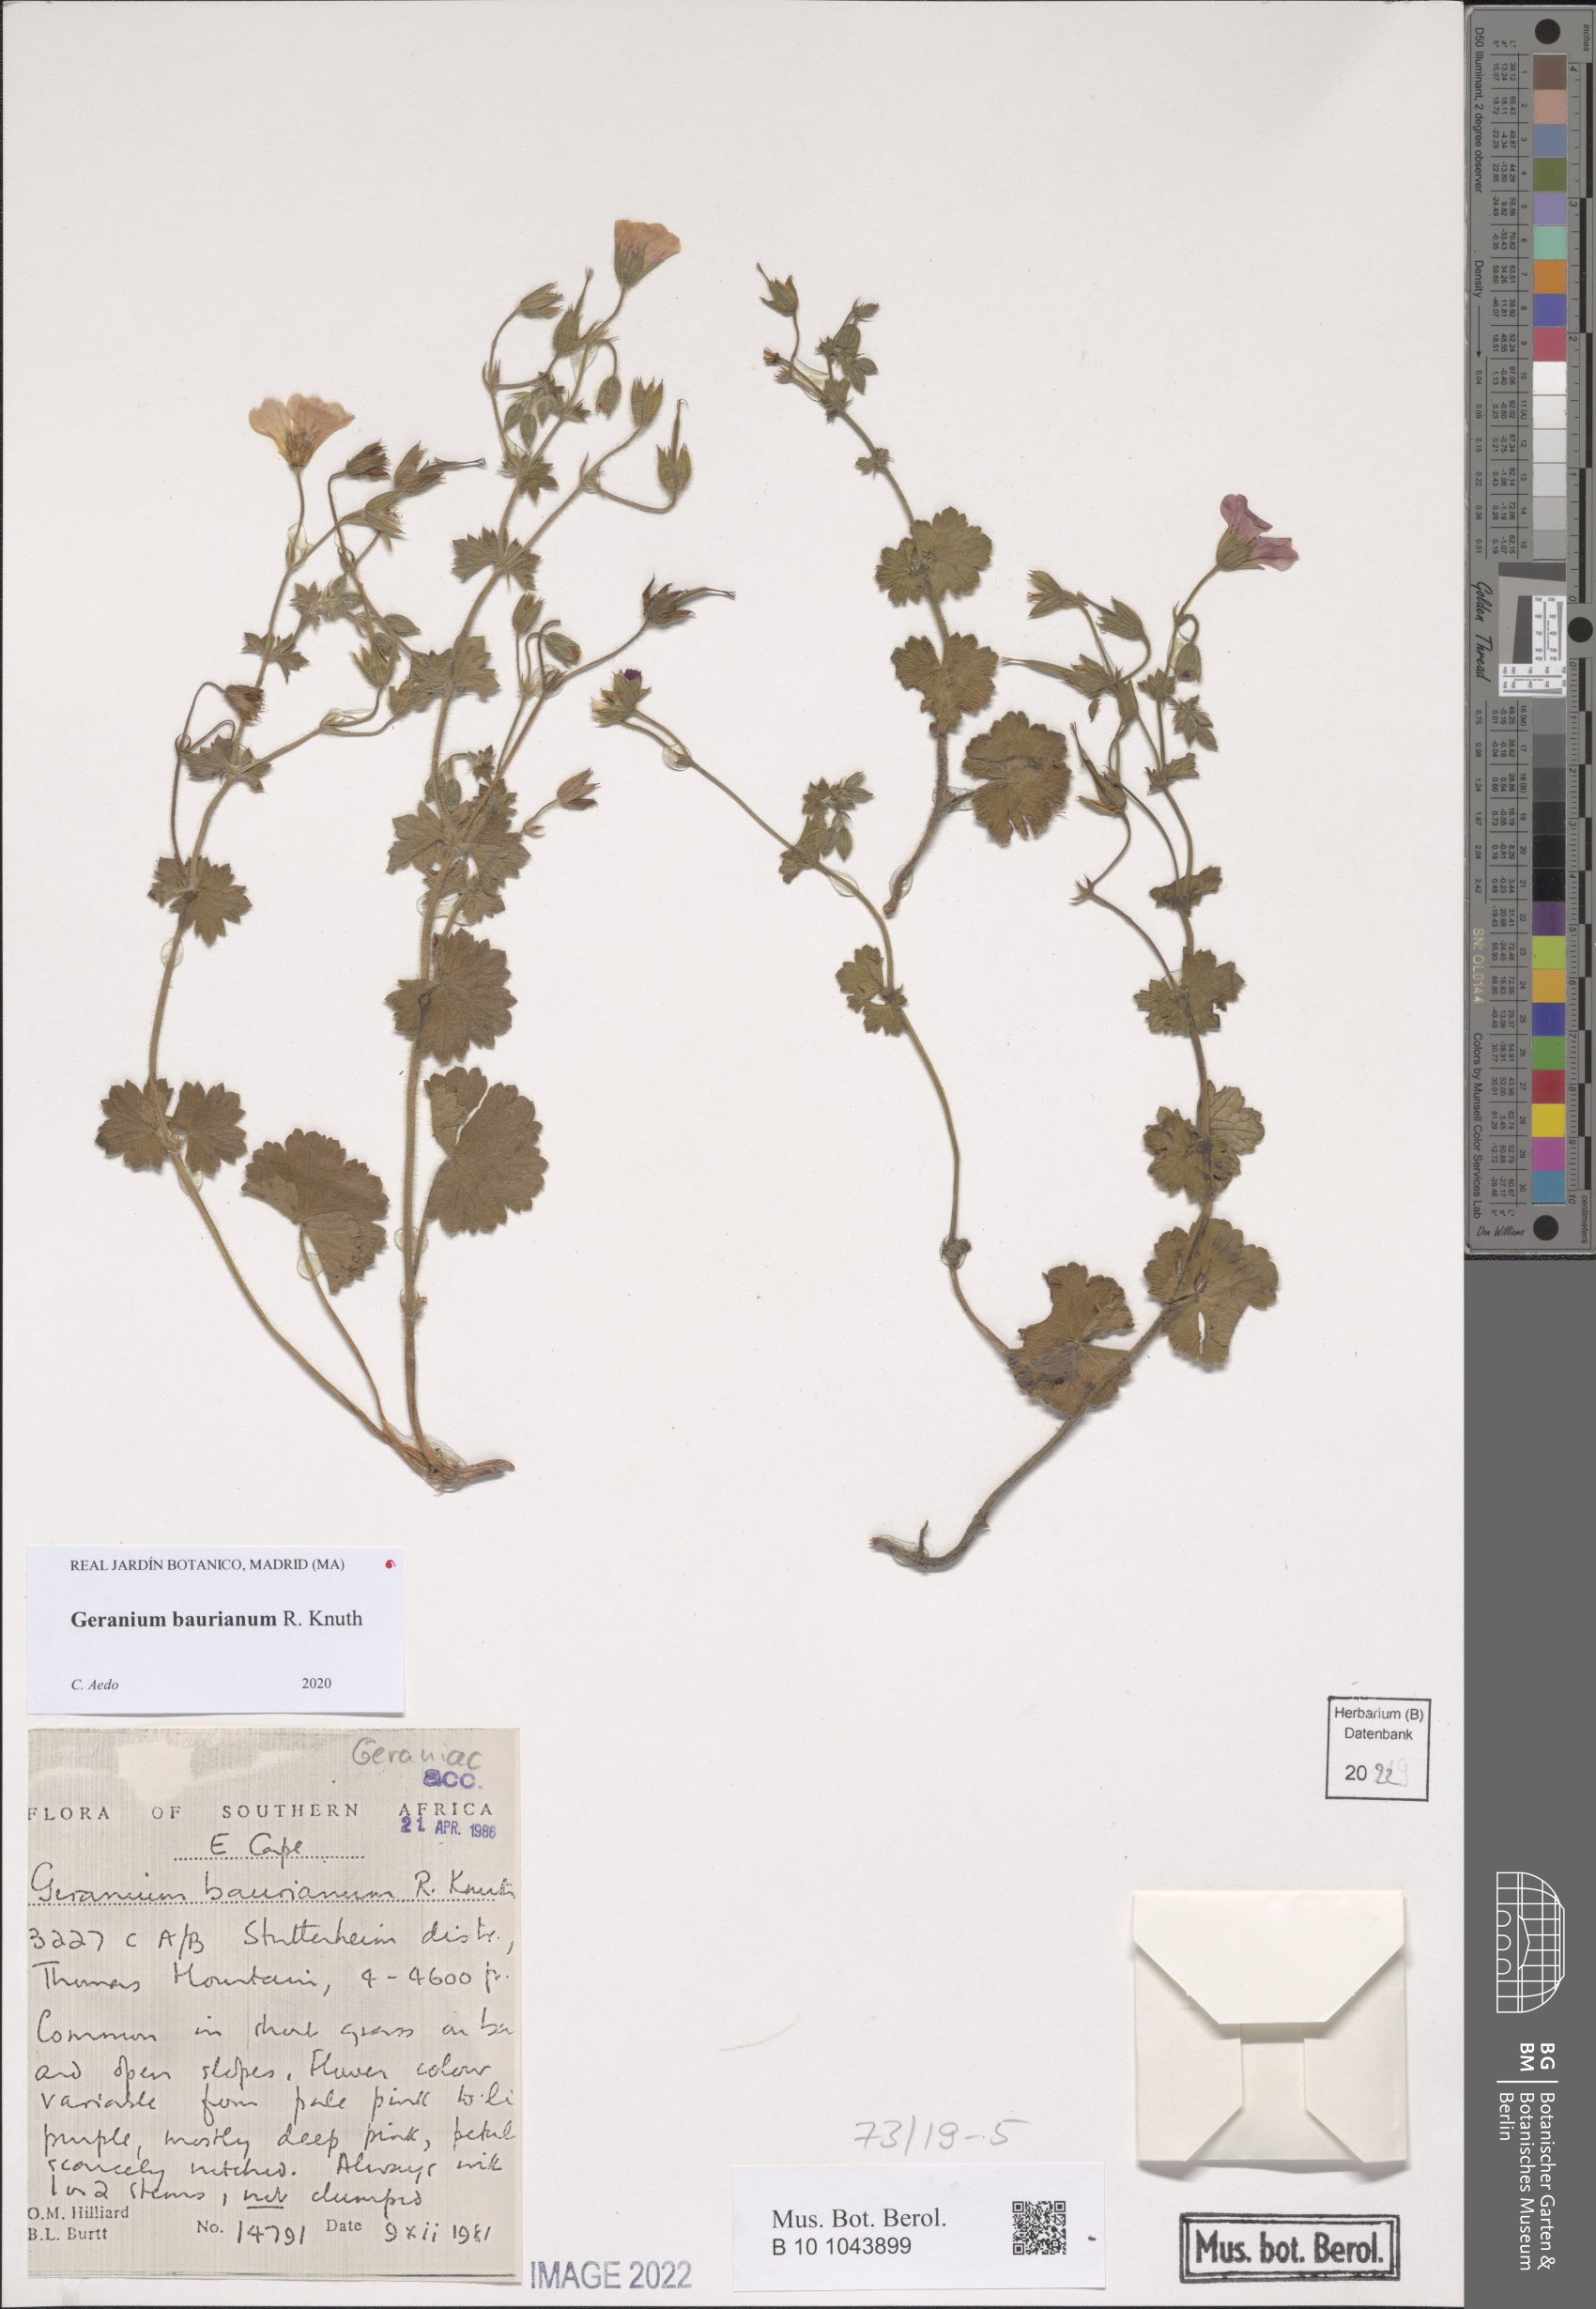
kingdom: Plantae
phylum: Tracheophyta
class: Magnoliopsida
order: Geraniales
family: Geraniaceae
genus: Geranium
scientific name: Geranium baurianum
